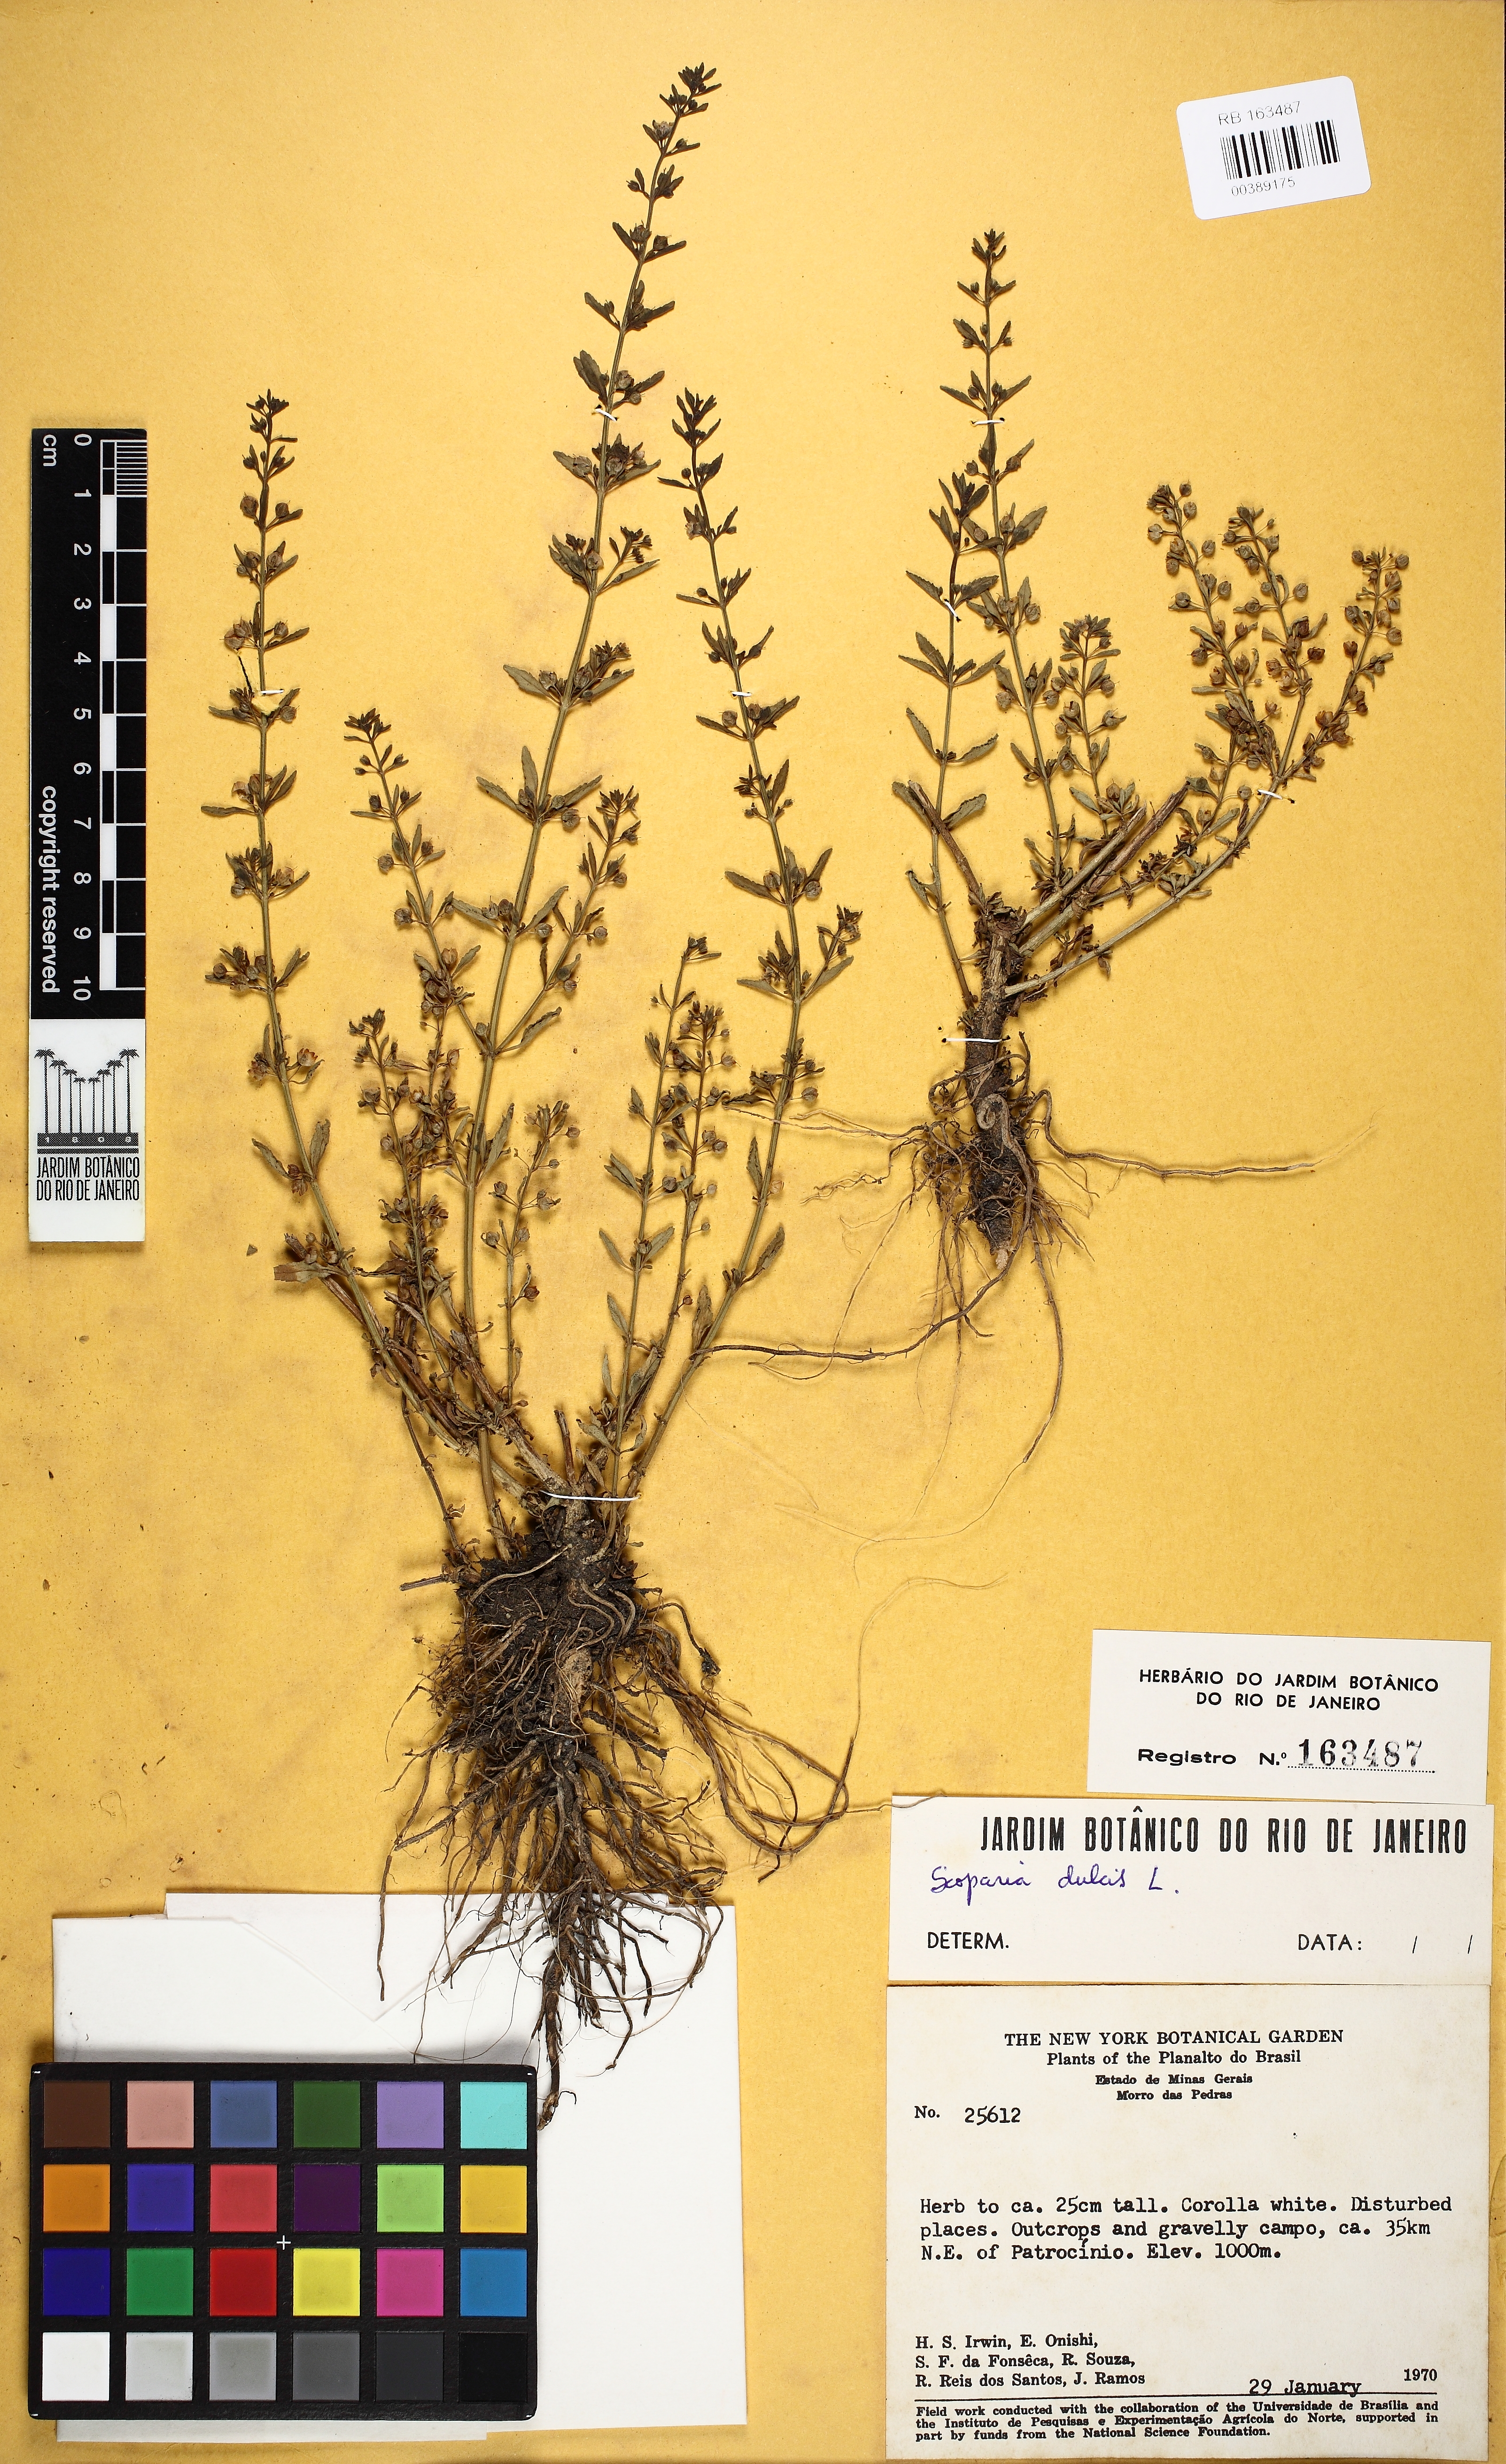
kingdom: Plantae
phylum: Tracheophyta
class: Magnoliopsida
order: Lamiales
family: Plantaginaceae
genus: Scoparia
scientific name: Scoparia dulcis
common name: Scoparia-weed
